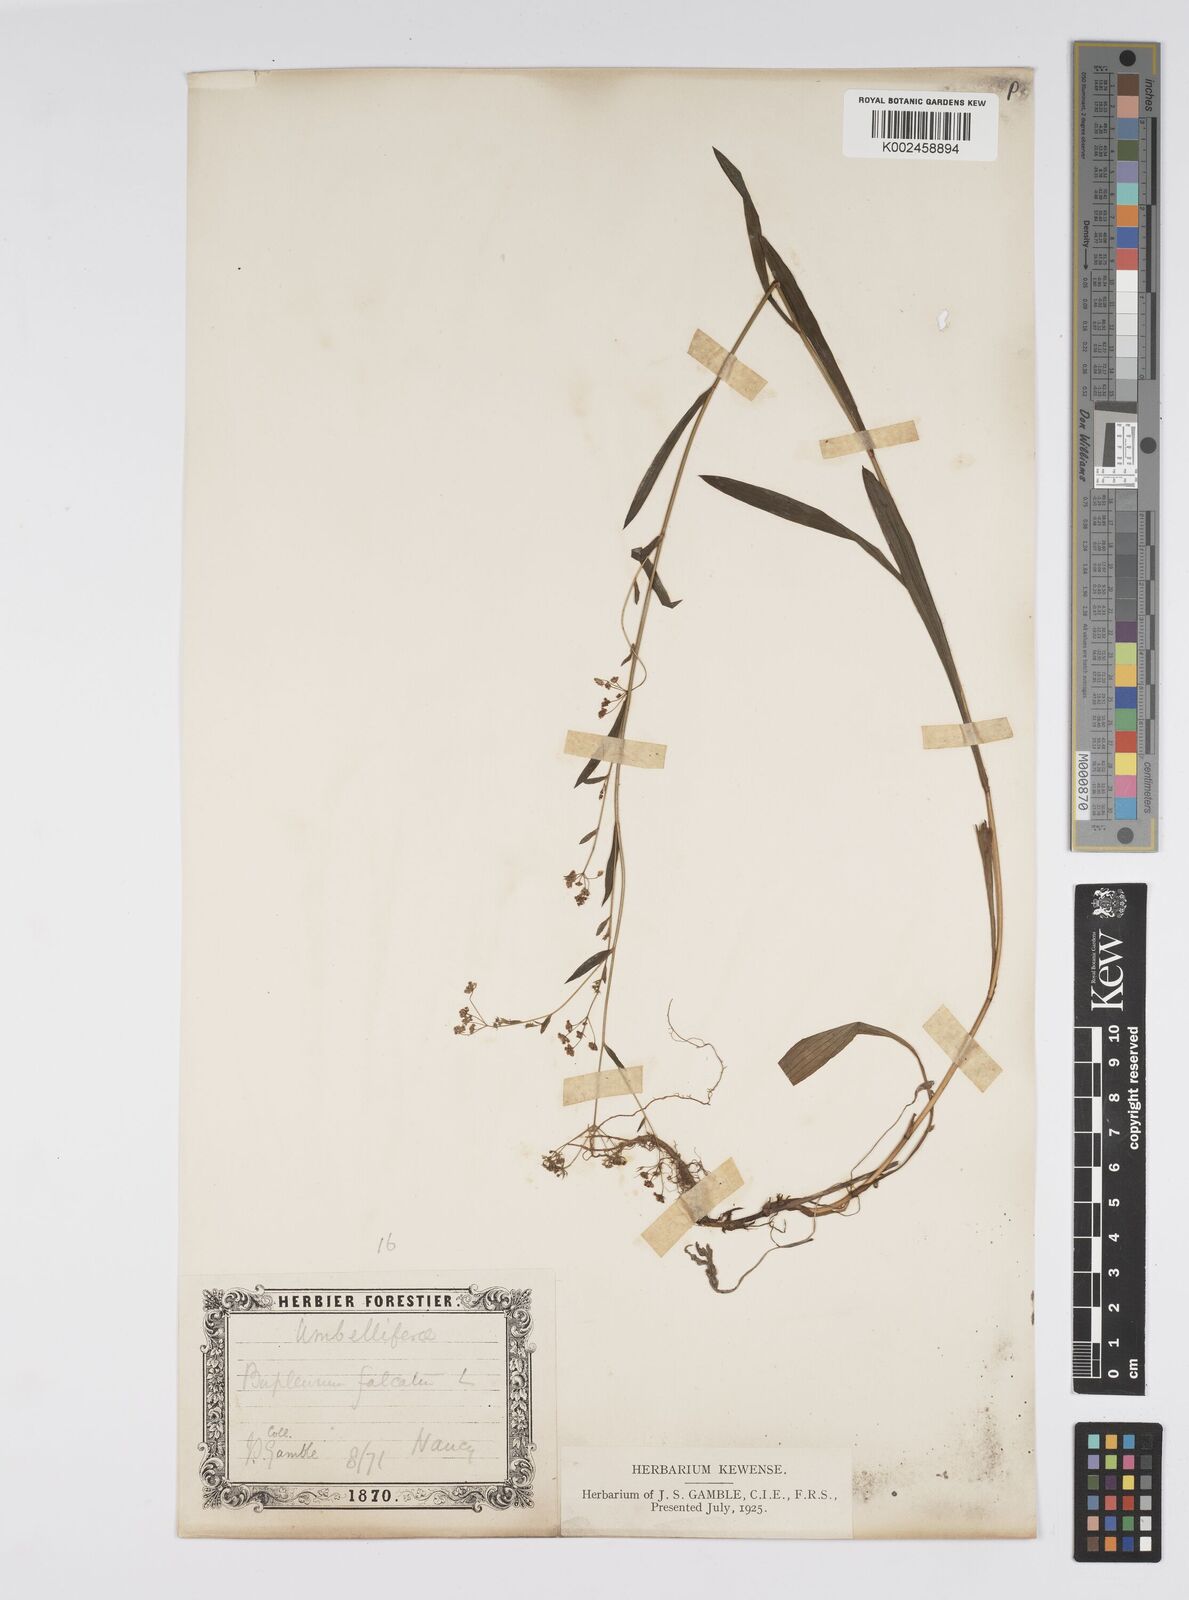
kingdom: Plantae
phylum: Tracheophyta
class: Magnoliopsida
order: Apiales
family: Apiaceae
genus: Bupleurum
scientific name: Bupleurum falcatum
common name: Sickle-leaved hare's-ear
